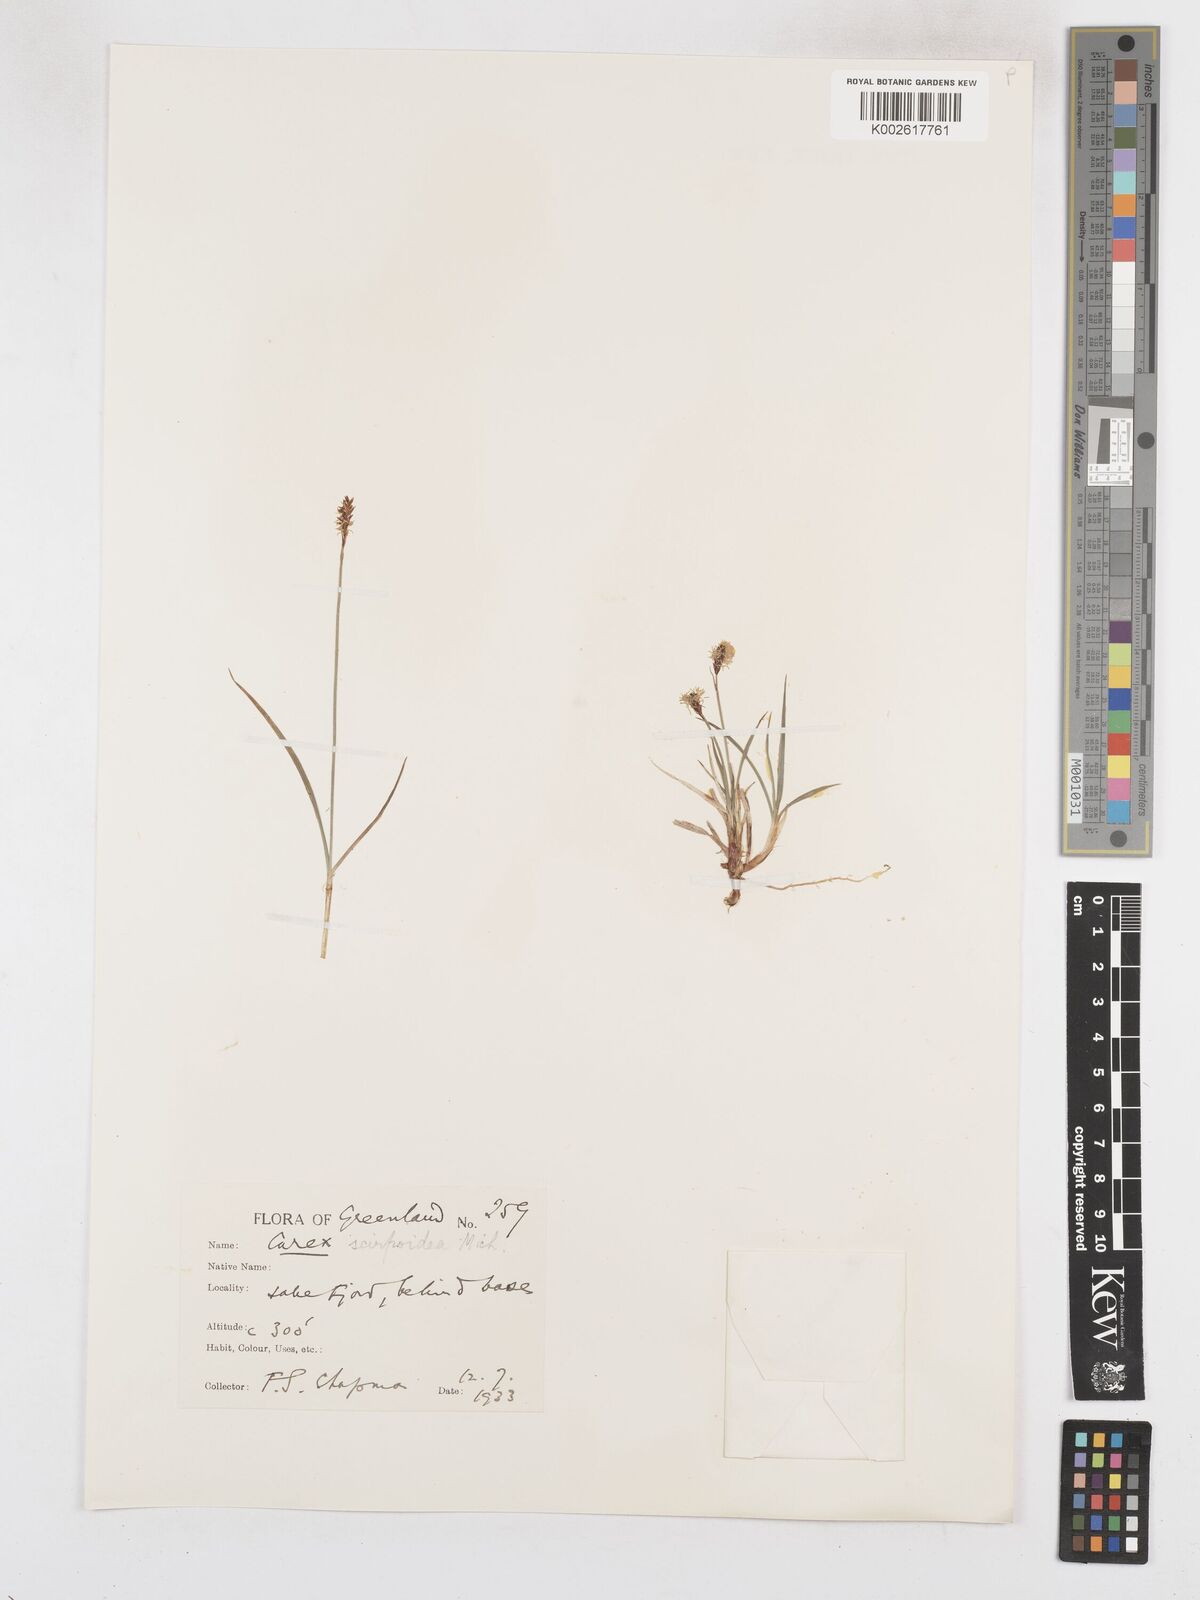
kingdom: Plantae
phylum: Tracheophyta
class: Liliopsida
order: Poales
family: Cyperaceae
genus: Carex
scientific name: Carex scirpoidea
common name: Canada single-spike sedge
